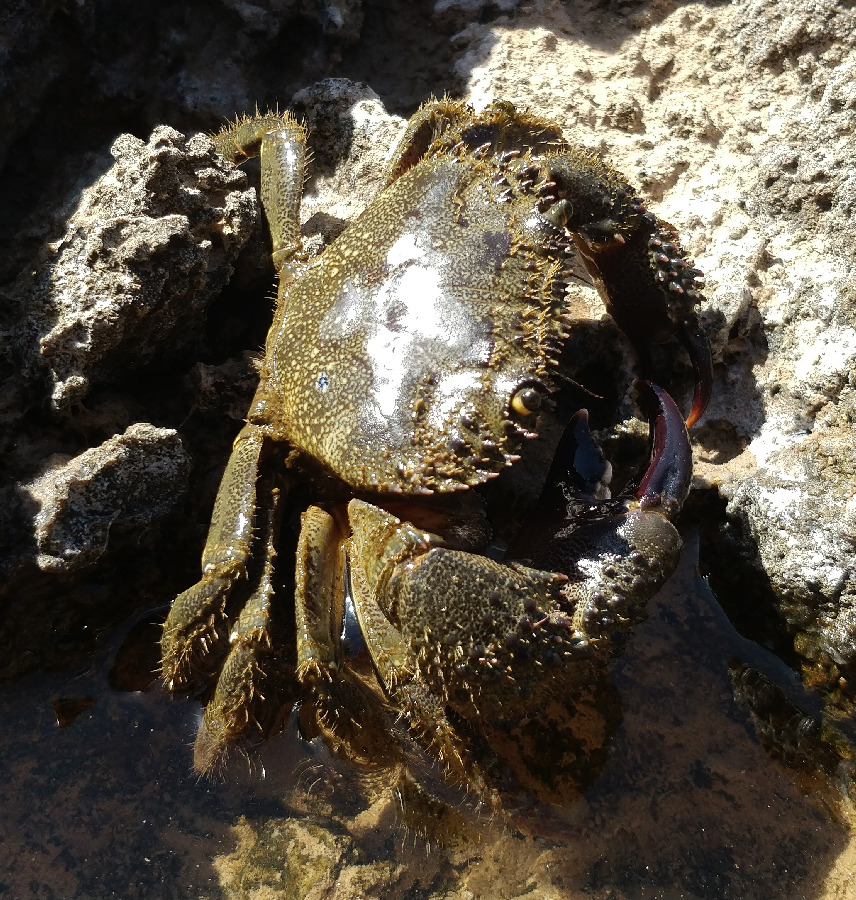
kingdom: Animalia
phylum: Arthropoda
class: Malacostraca
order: Decapoda
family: Eriphiidae
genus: Eriphia
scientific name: Eriphia verrucosa
